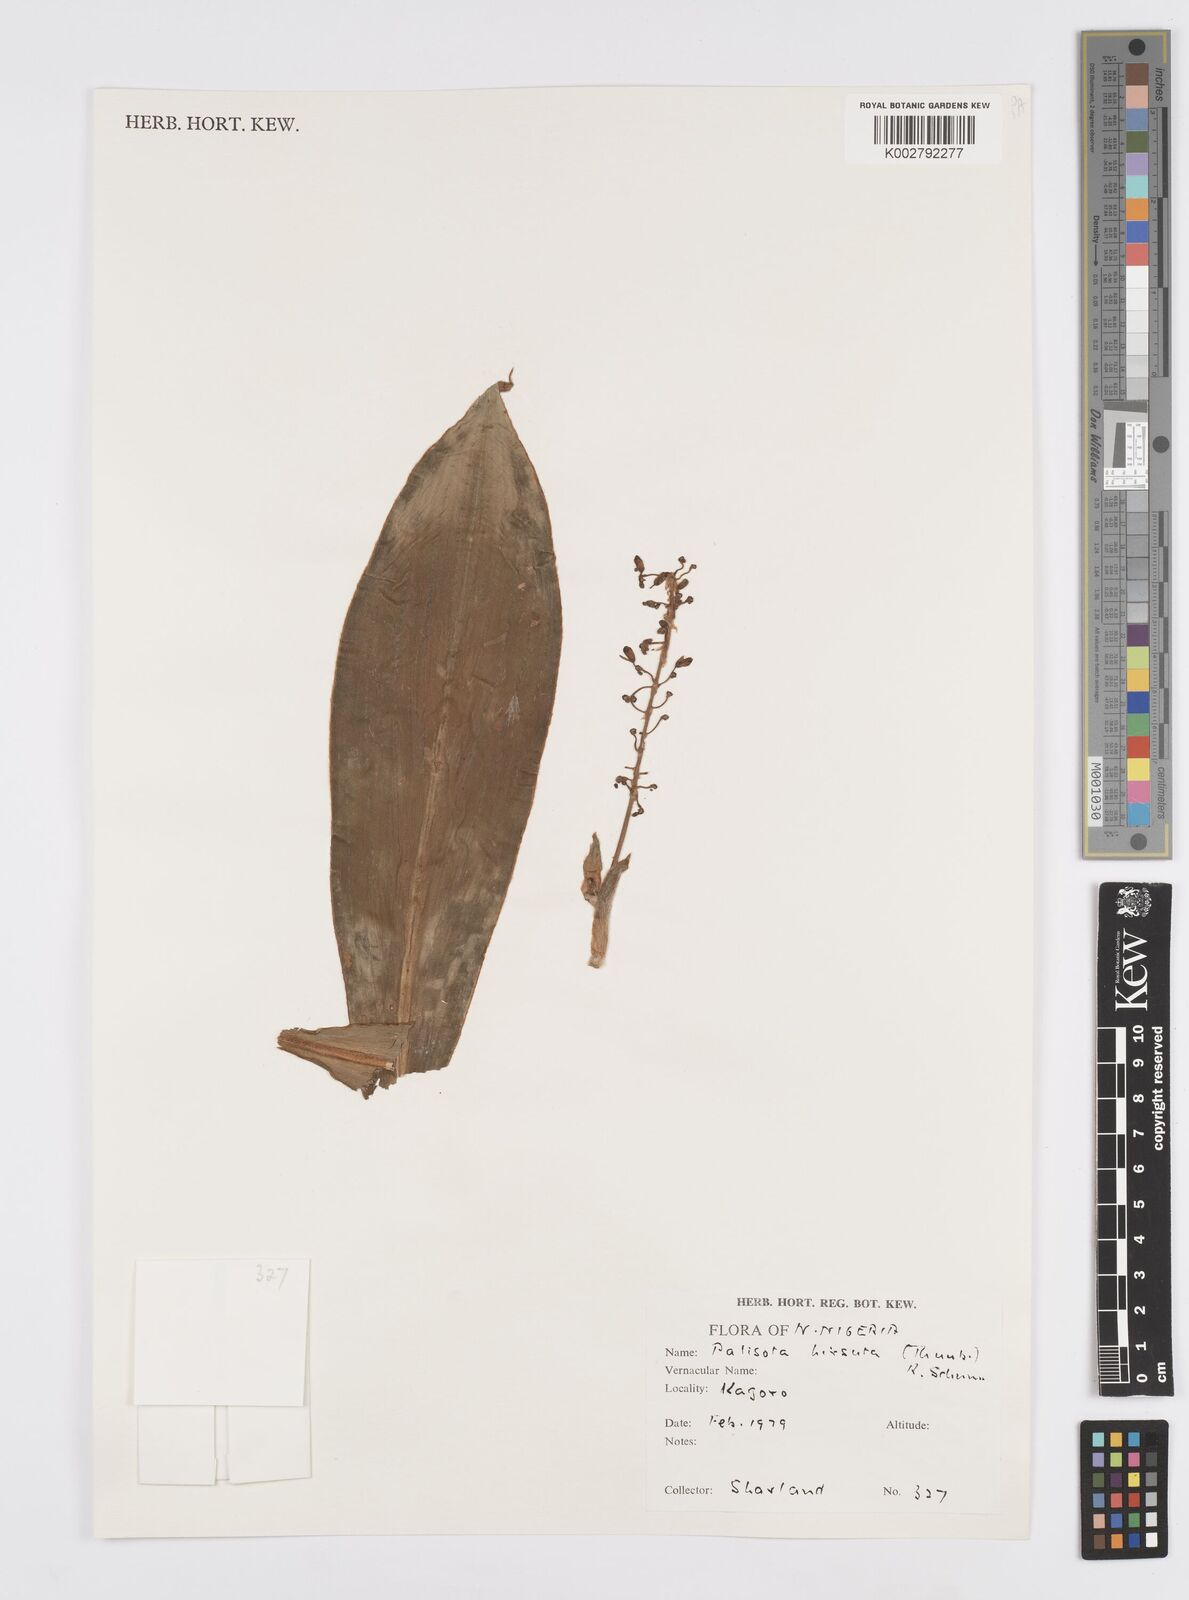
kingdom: Plantae
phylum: Tracheophyta
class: Liliopsida
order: Commelinales
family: Commelinaceae
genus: Palisota
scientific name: Palisota hirsuta
